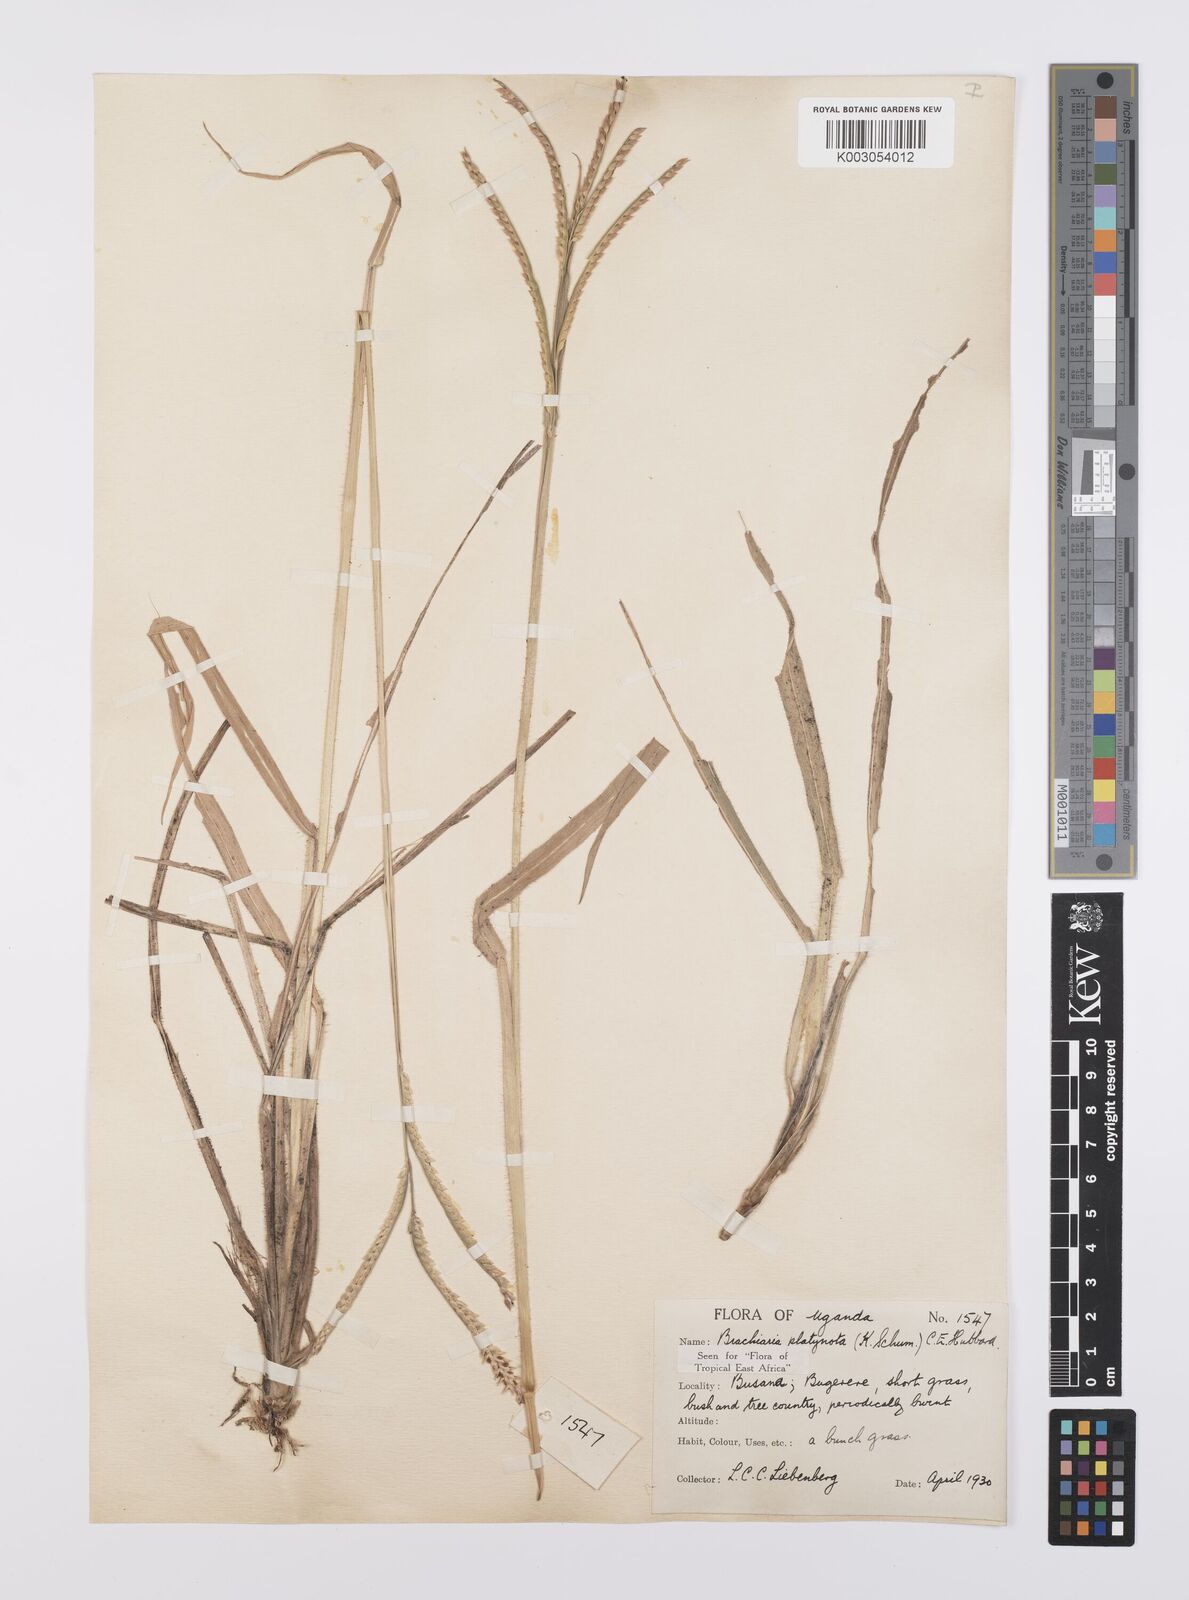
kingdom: Plantae
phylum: Tracheophyta
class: Liliopsida
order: Poales
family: Poaceae
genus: Urochloa
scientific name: Urochloa platynota
